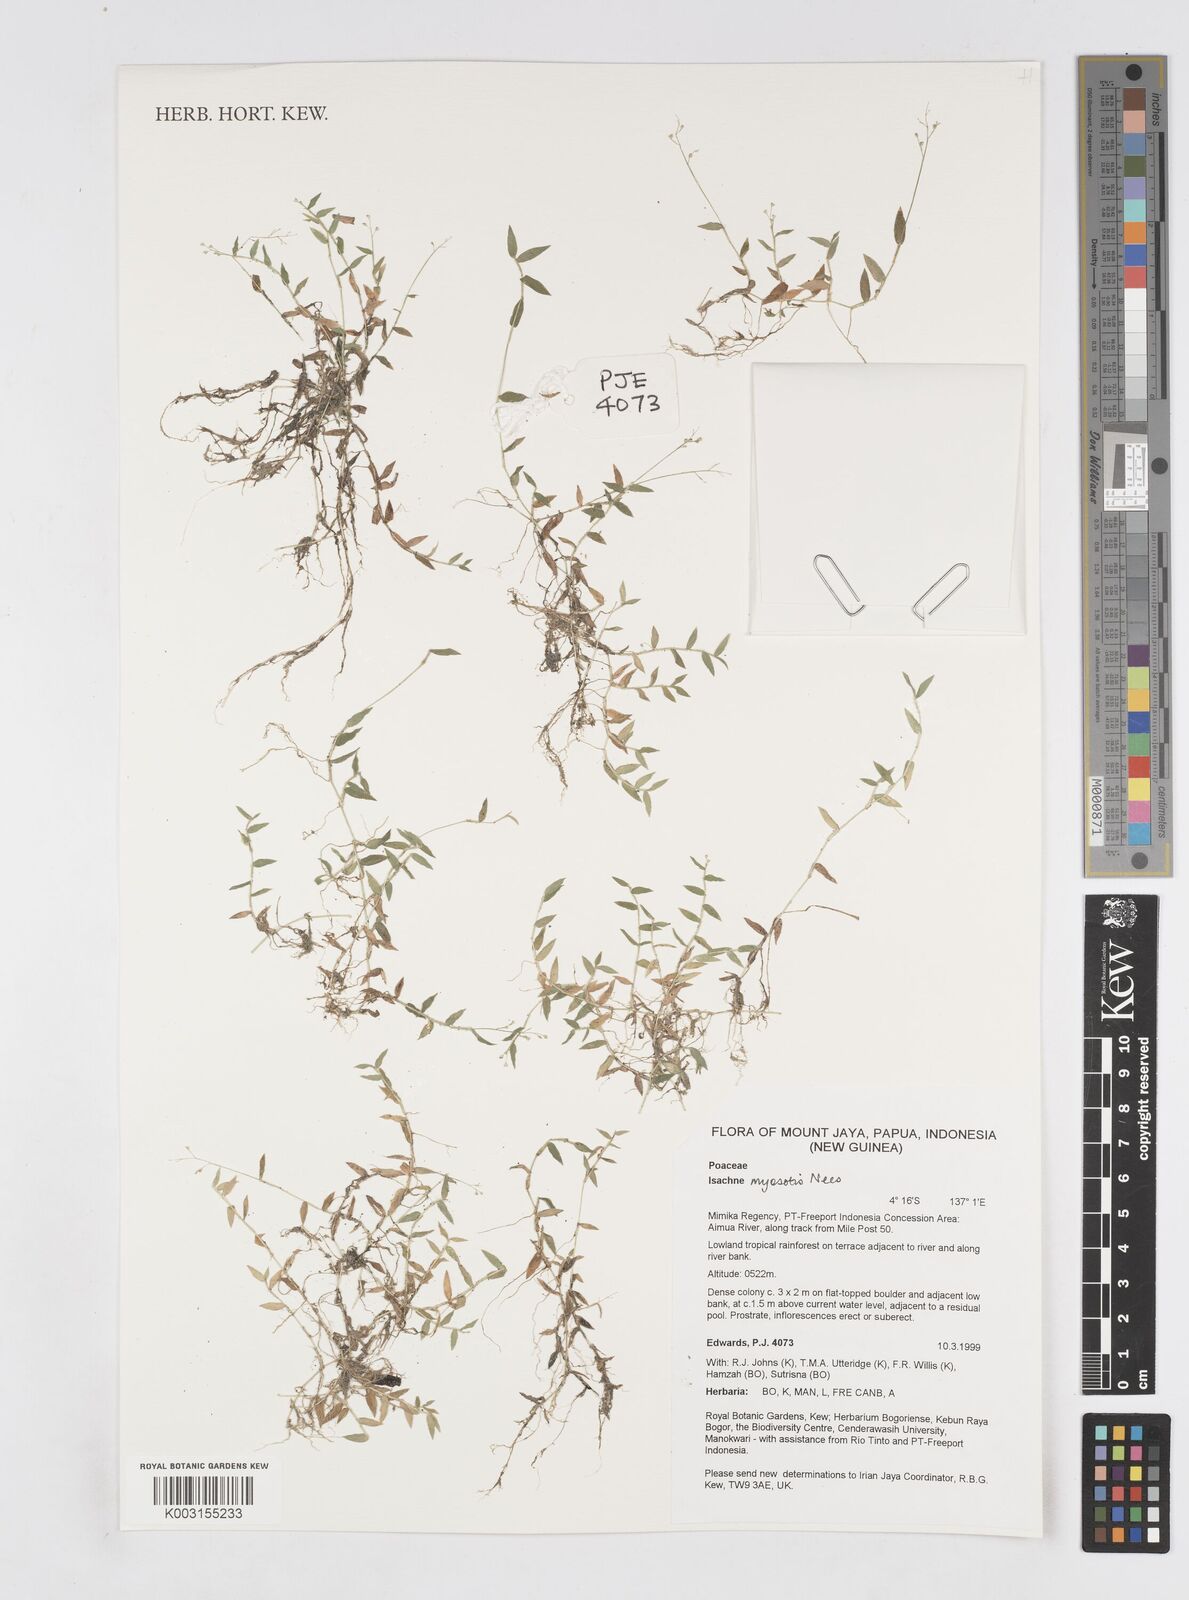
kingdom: Plantae
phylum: Tracheophyta
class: Liliopsida
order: Poales
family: Poaceae
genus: Isachne
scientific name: Isachne myosotis
